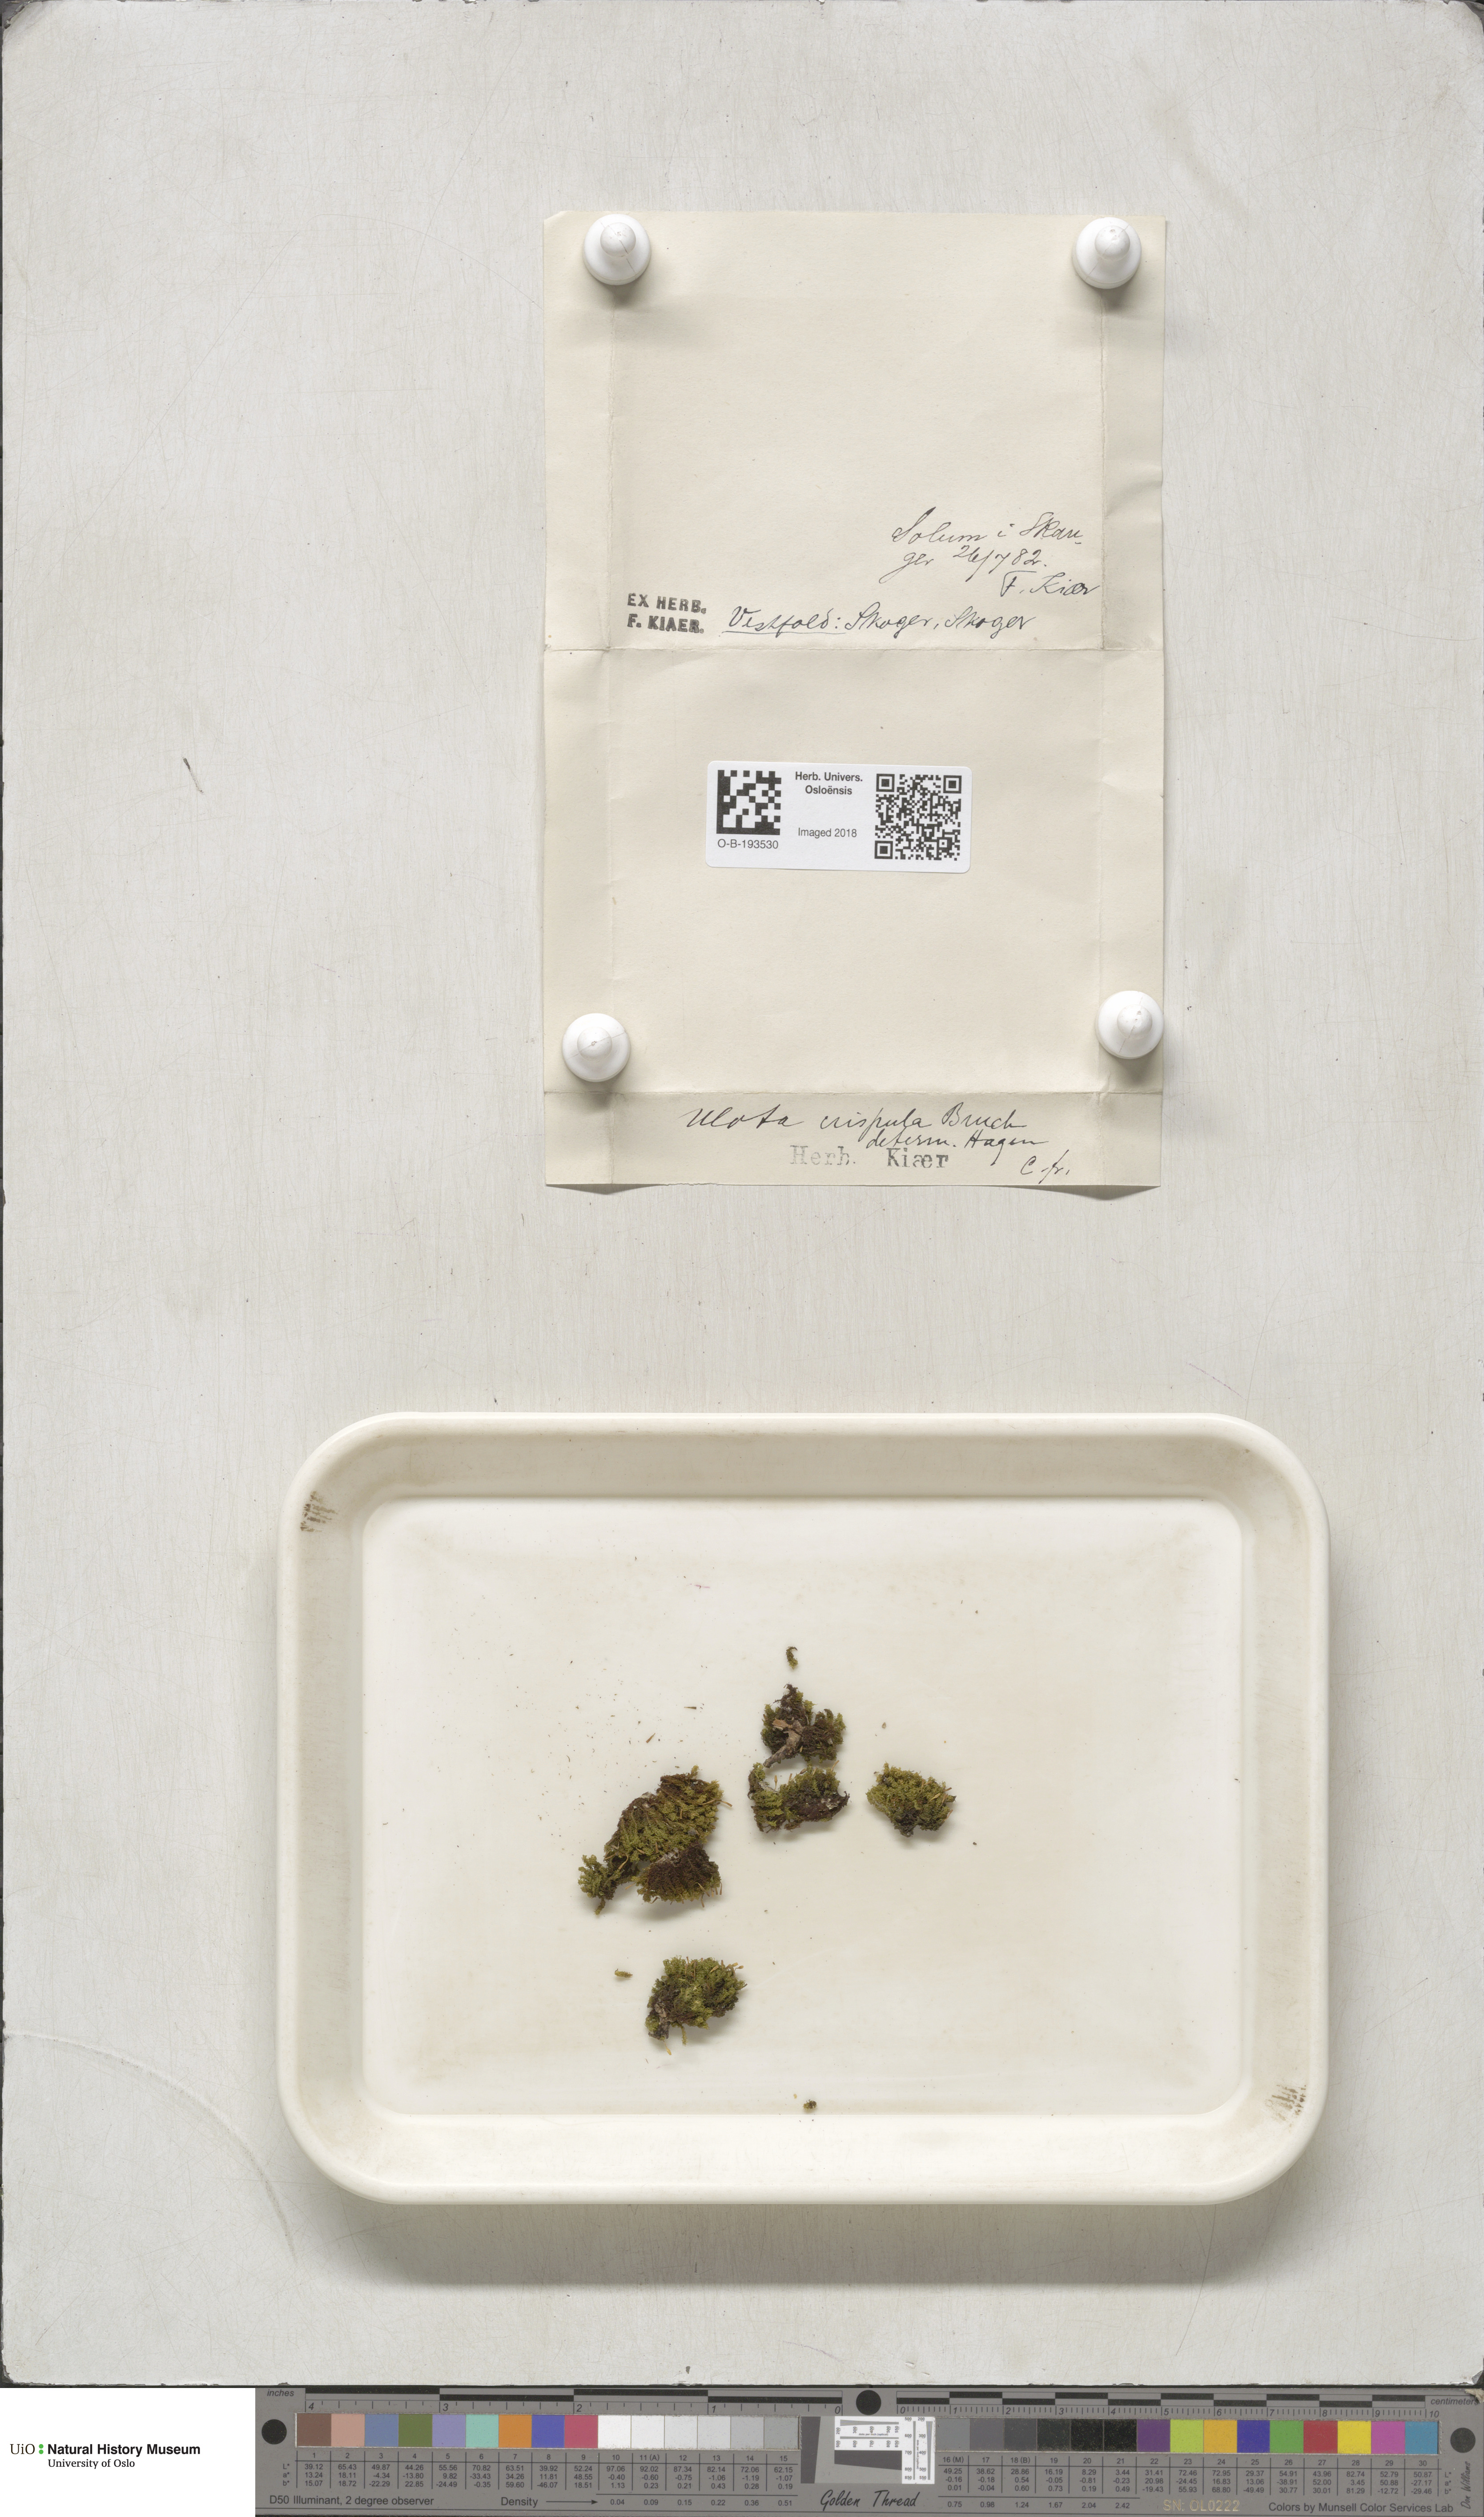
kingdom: Plantae
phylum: Bryophyta
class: Bryopsida
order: Orthotrichales
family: Orthotrichaceae
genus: Ulota
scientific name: Ulota crispa
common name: Crisped pincushion moss
